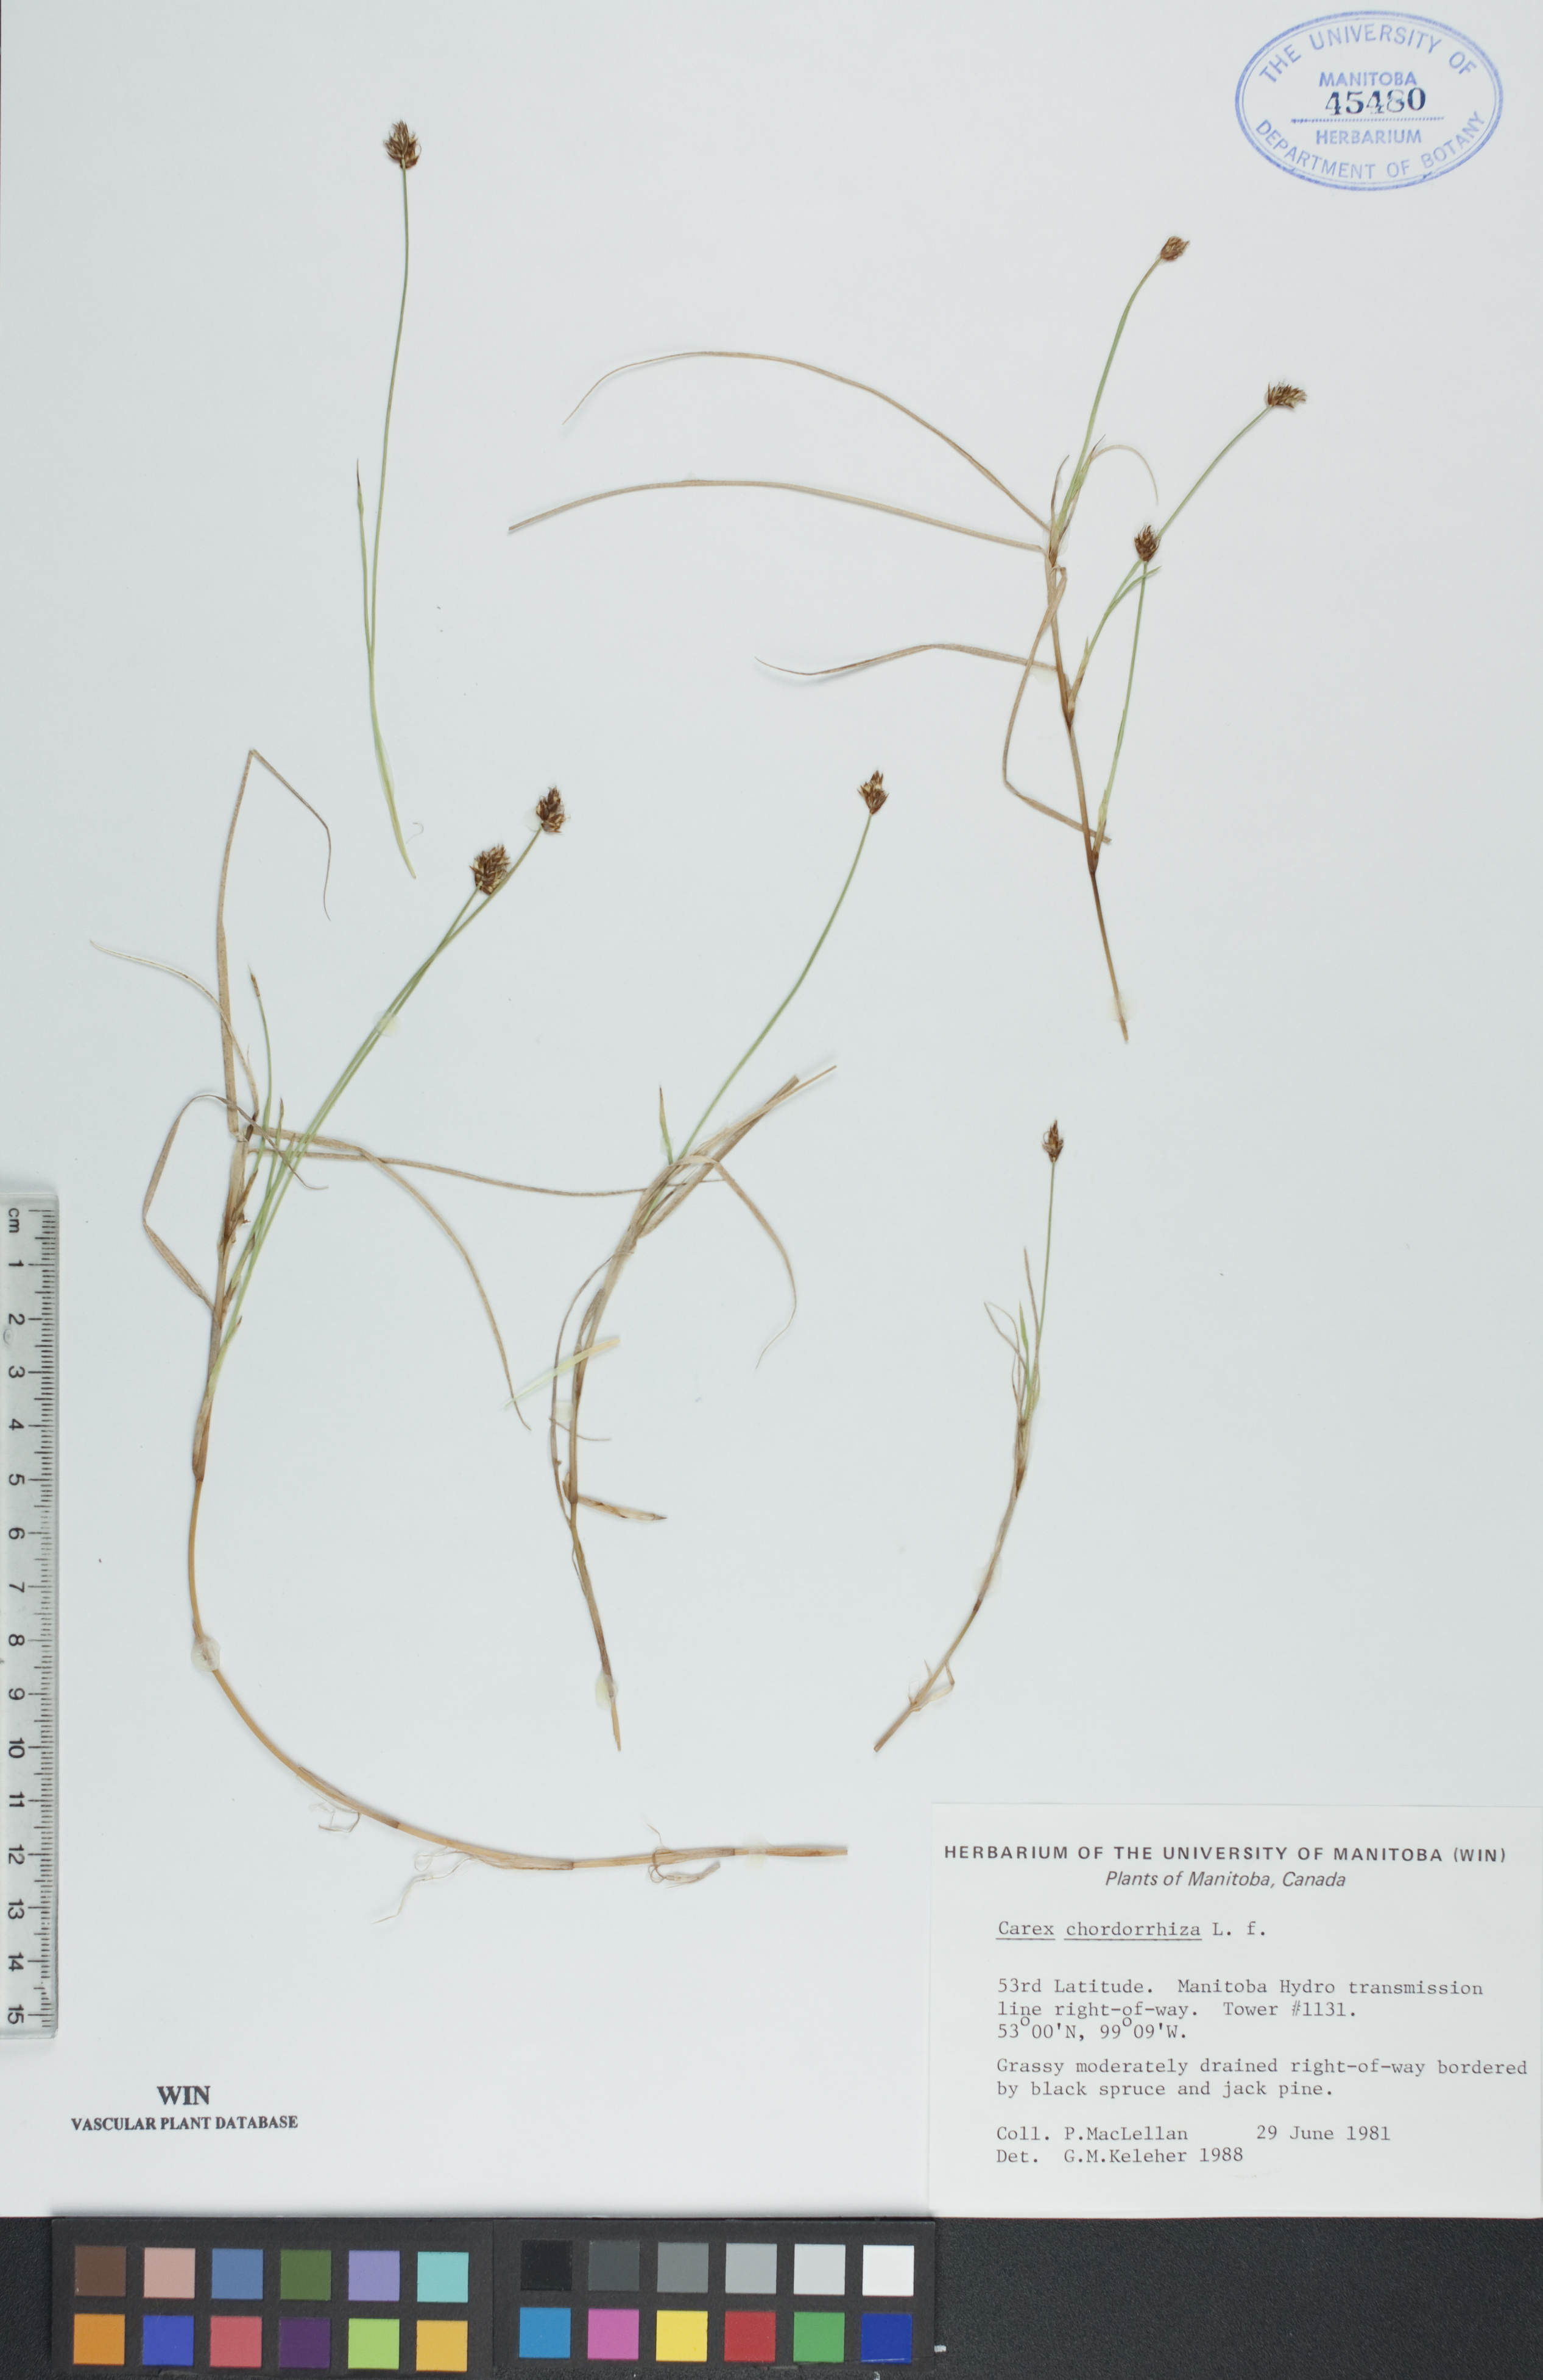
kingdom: Plantae
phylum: Tracheophyta
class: Liliopsida
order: Poales
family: Cyperaceae
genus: Carex
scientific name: Carex chordorrhiza
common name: String sedge
